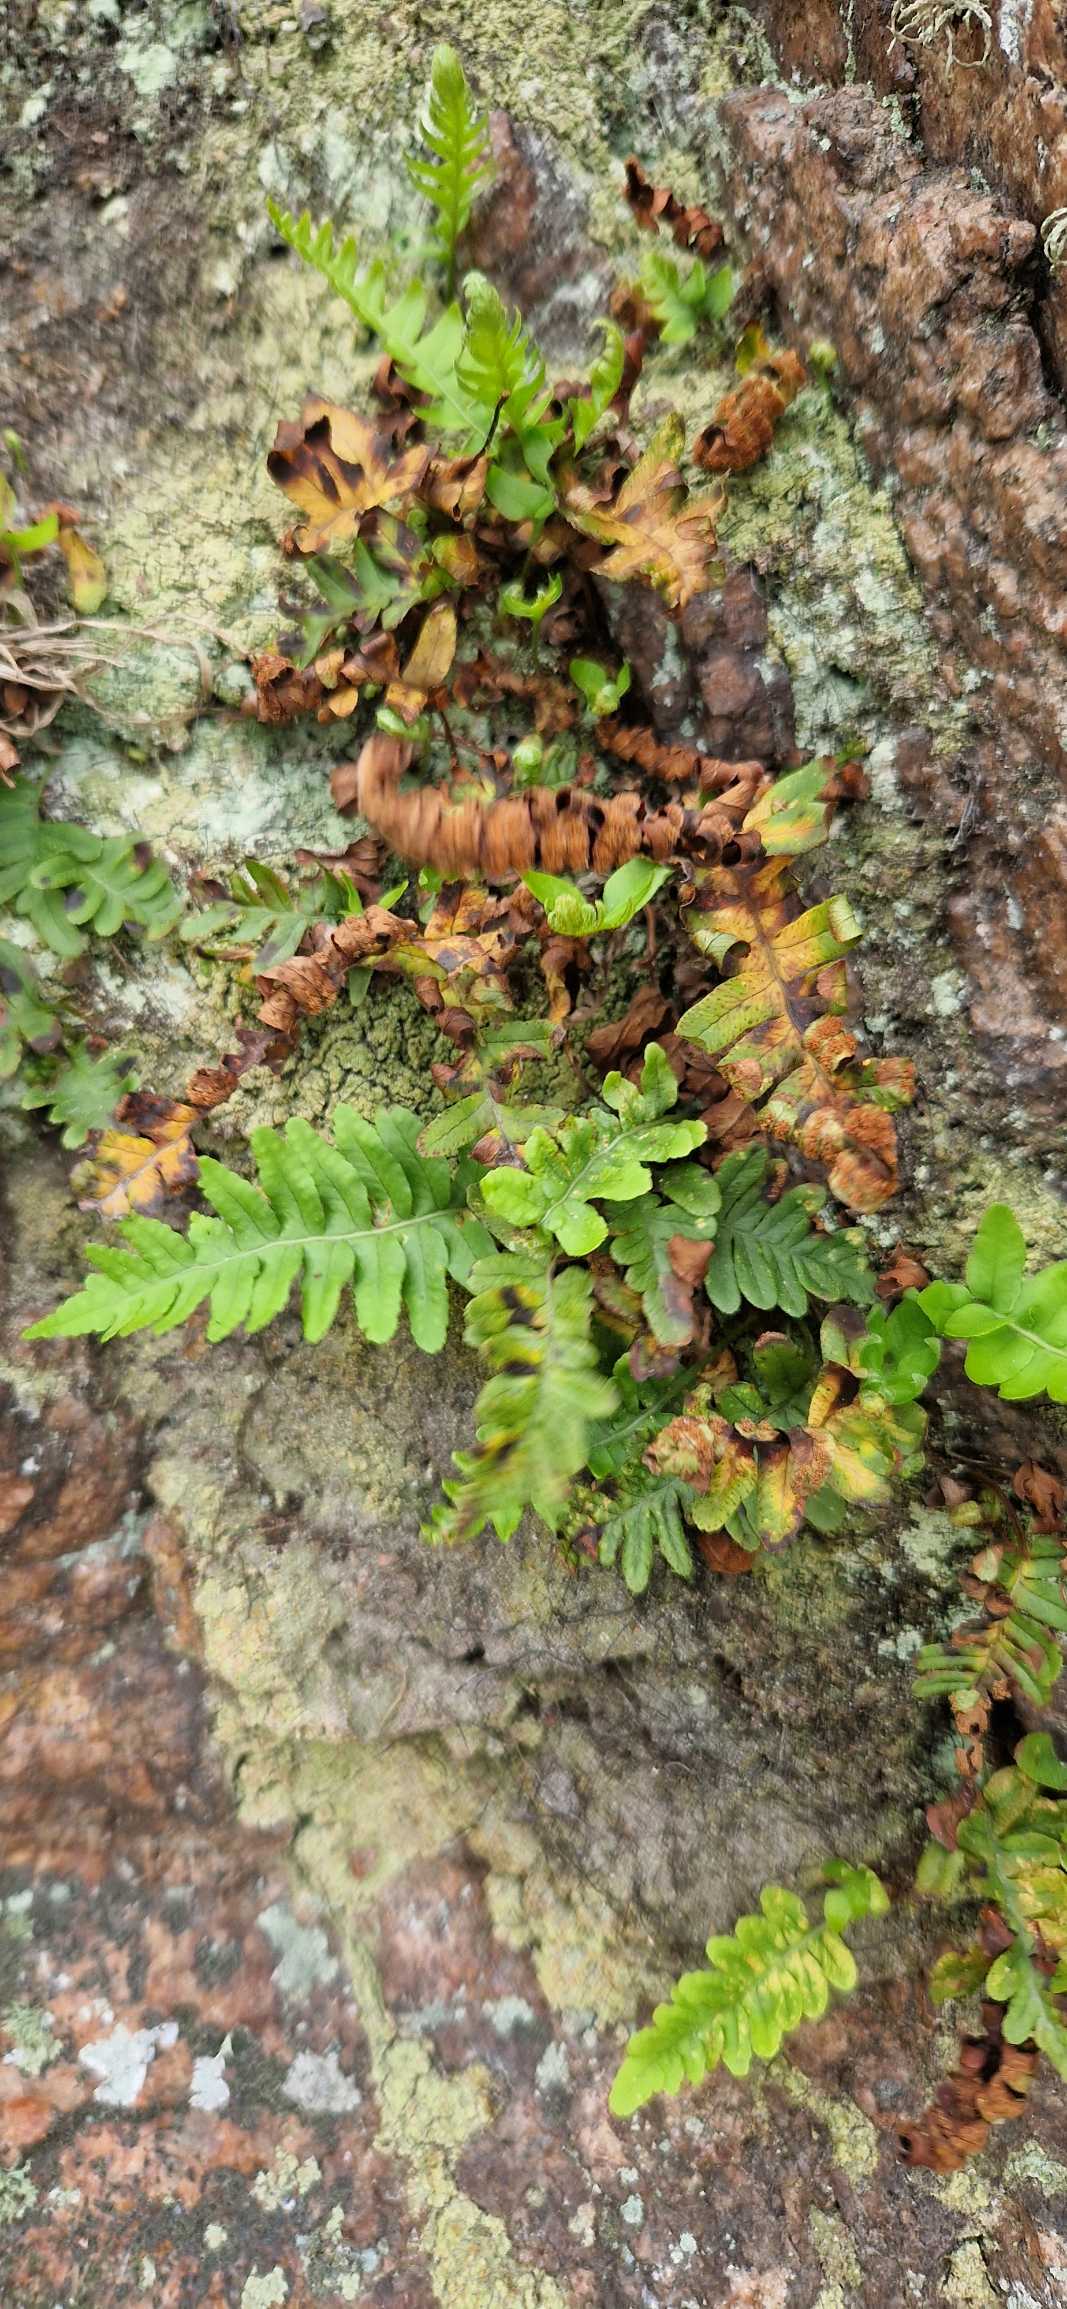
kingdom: Plantae
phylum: Tracheophyta
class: Polypodiopsida
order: Polypodiales
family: Polypodiaceae
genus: Polypodium
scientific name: Polypodium vulgare
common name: Almindelig engelsød
